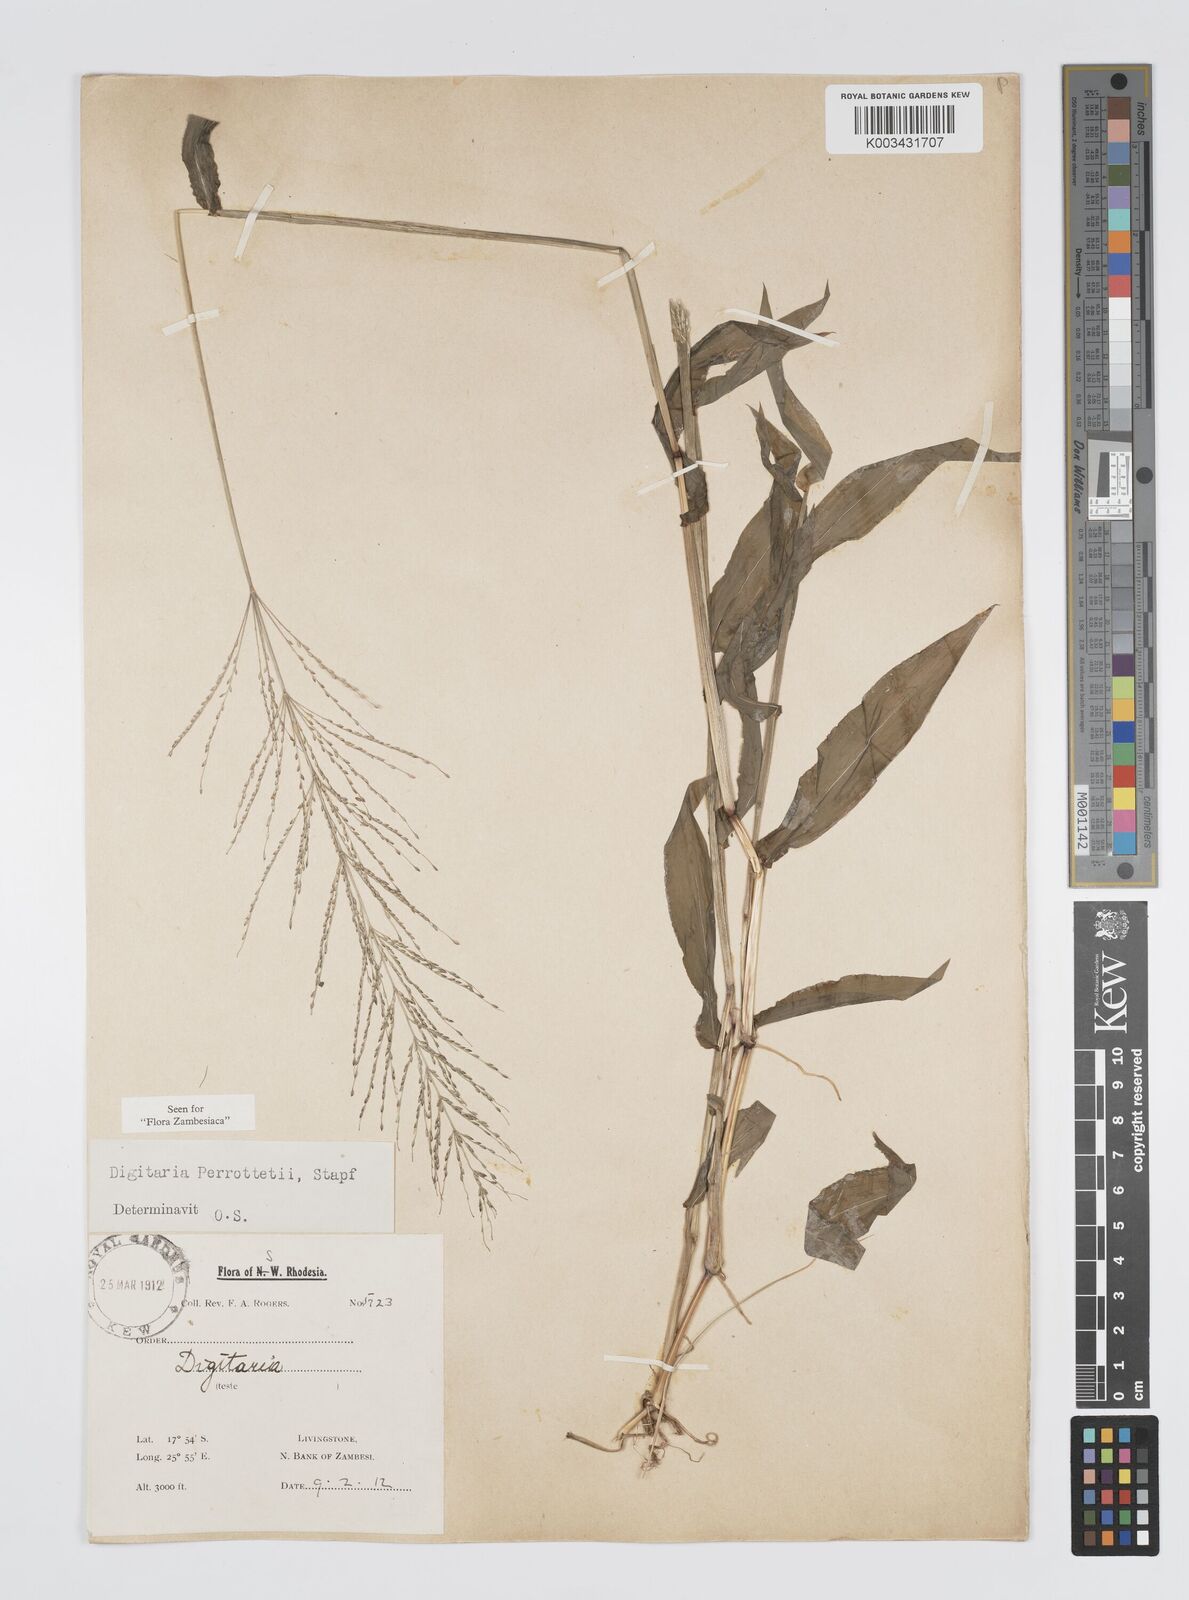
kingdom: Plantae
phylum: Tracheophyta
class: Liliopsida
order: Poales
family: Poaceae
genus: Digitaria
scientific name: Digitaria perrottetii
